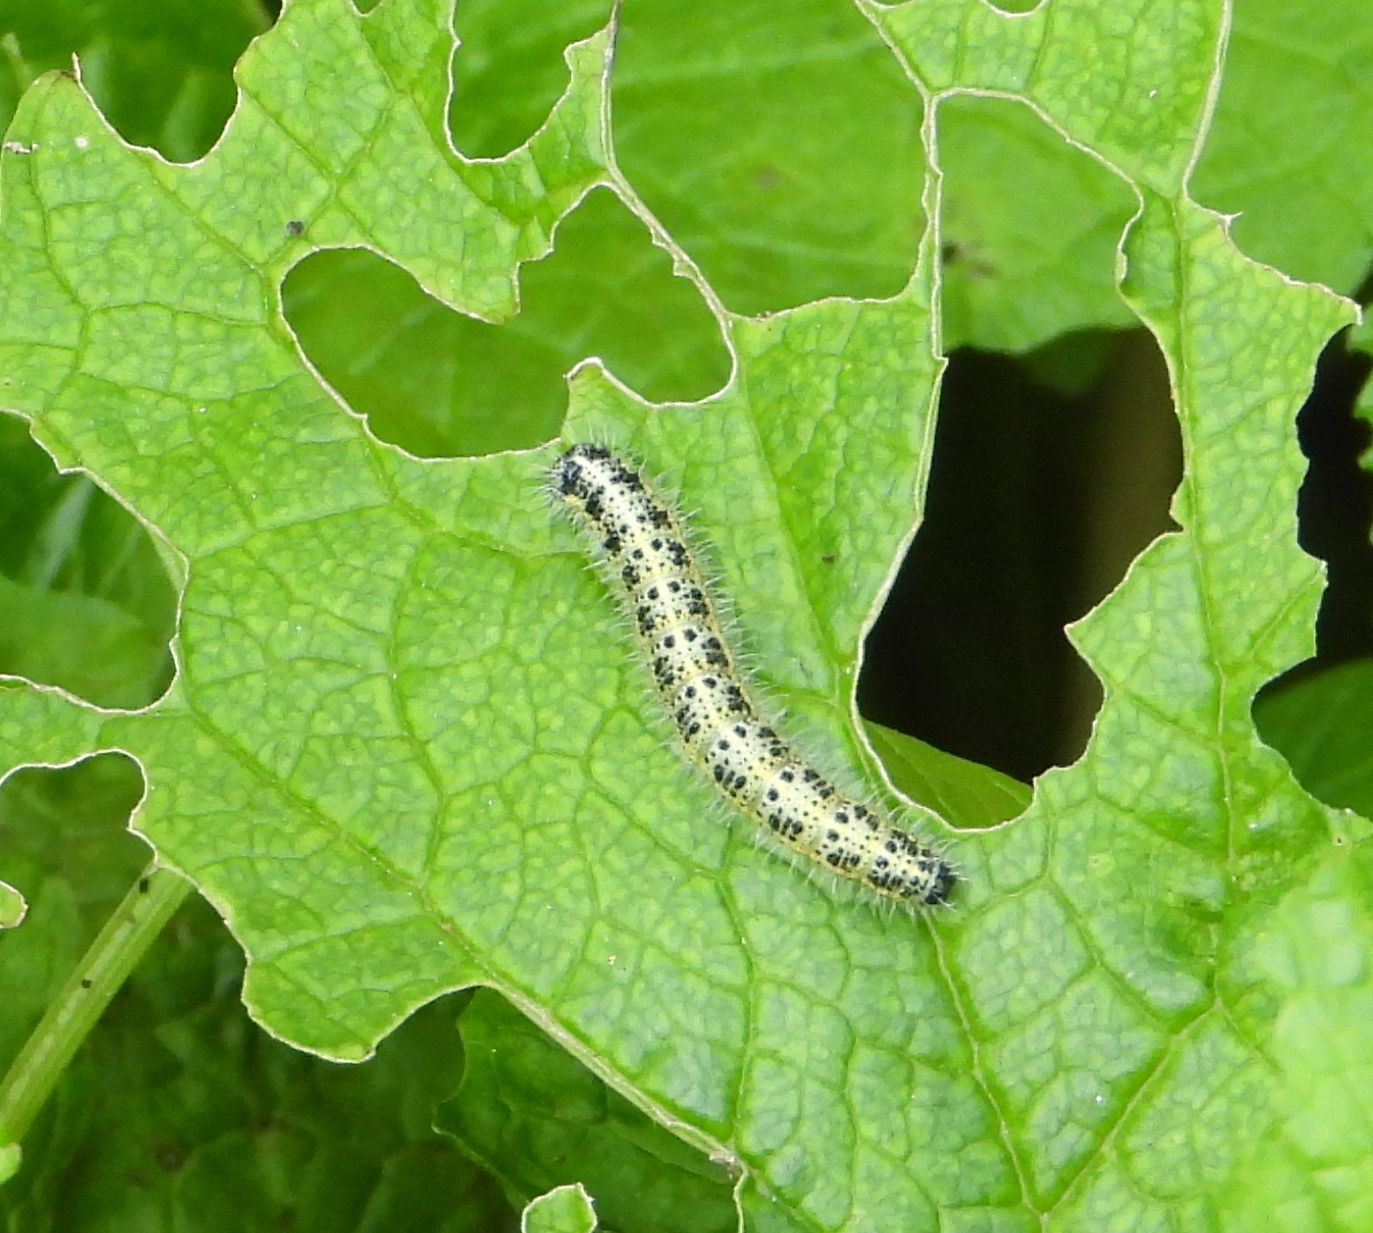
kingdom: Animalia
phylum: Arthropoda
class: Insecta
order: Lepidoptera
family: Pieridae
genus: Pieris
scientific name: Pieris brassicae
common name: Stor kålsommerfugl
